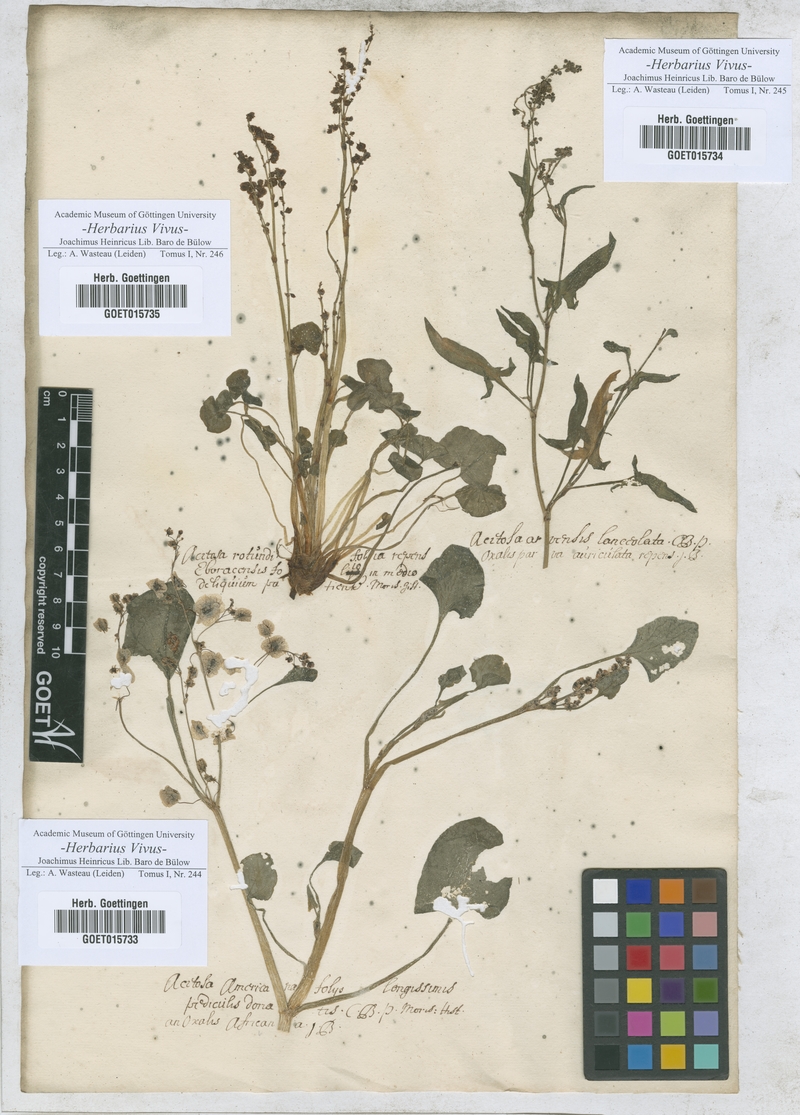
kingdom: Plantae
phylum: Tracheophyta
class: Magnoliopsida
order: Caryophyllales
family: Polygonaceae
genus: Rumex
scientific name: Rumex vesicarius
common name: Bladder dock
